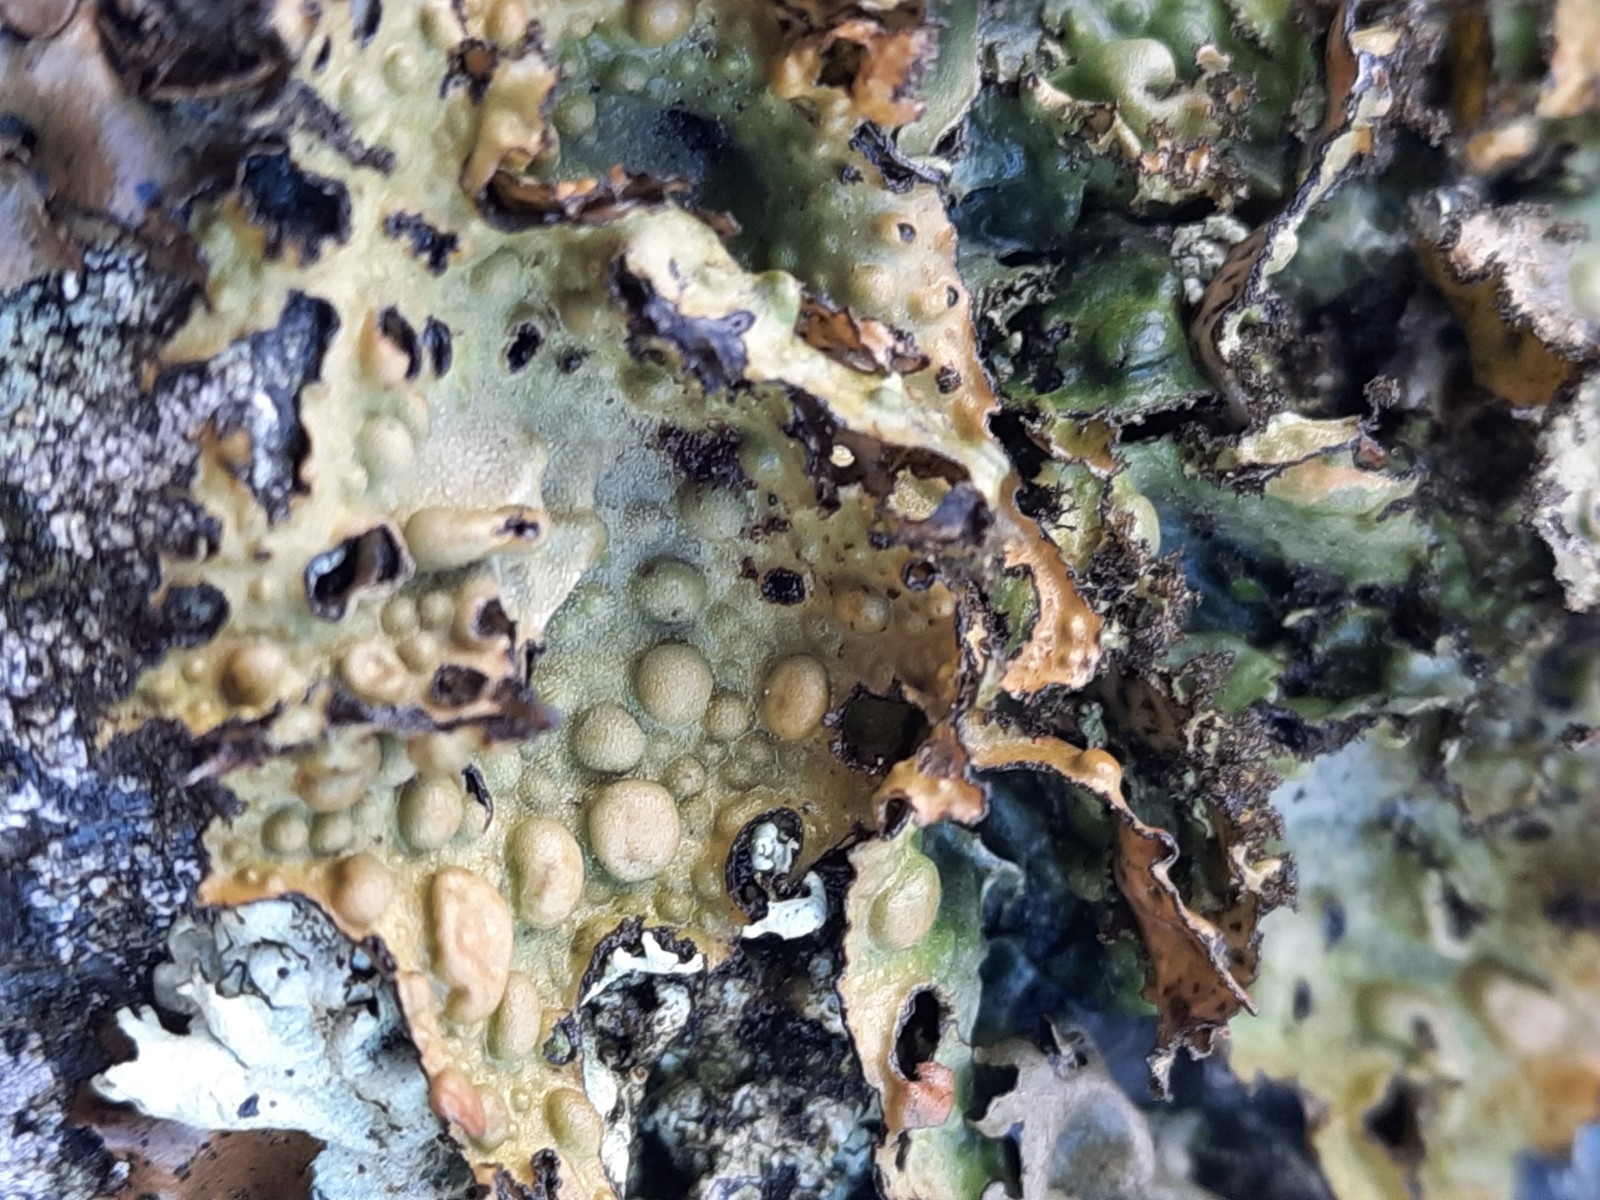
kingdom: Fungi
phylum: Ascomycota
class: Lecanoromycetes
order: Umbilicariales
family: Umbilicariaceae
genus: Lasallia
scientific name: Lasallia pustulata
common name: buklet navlelav
